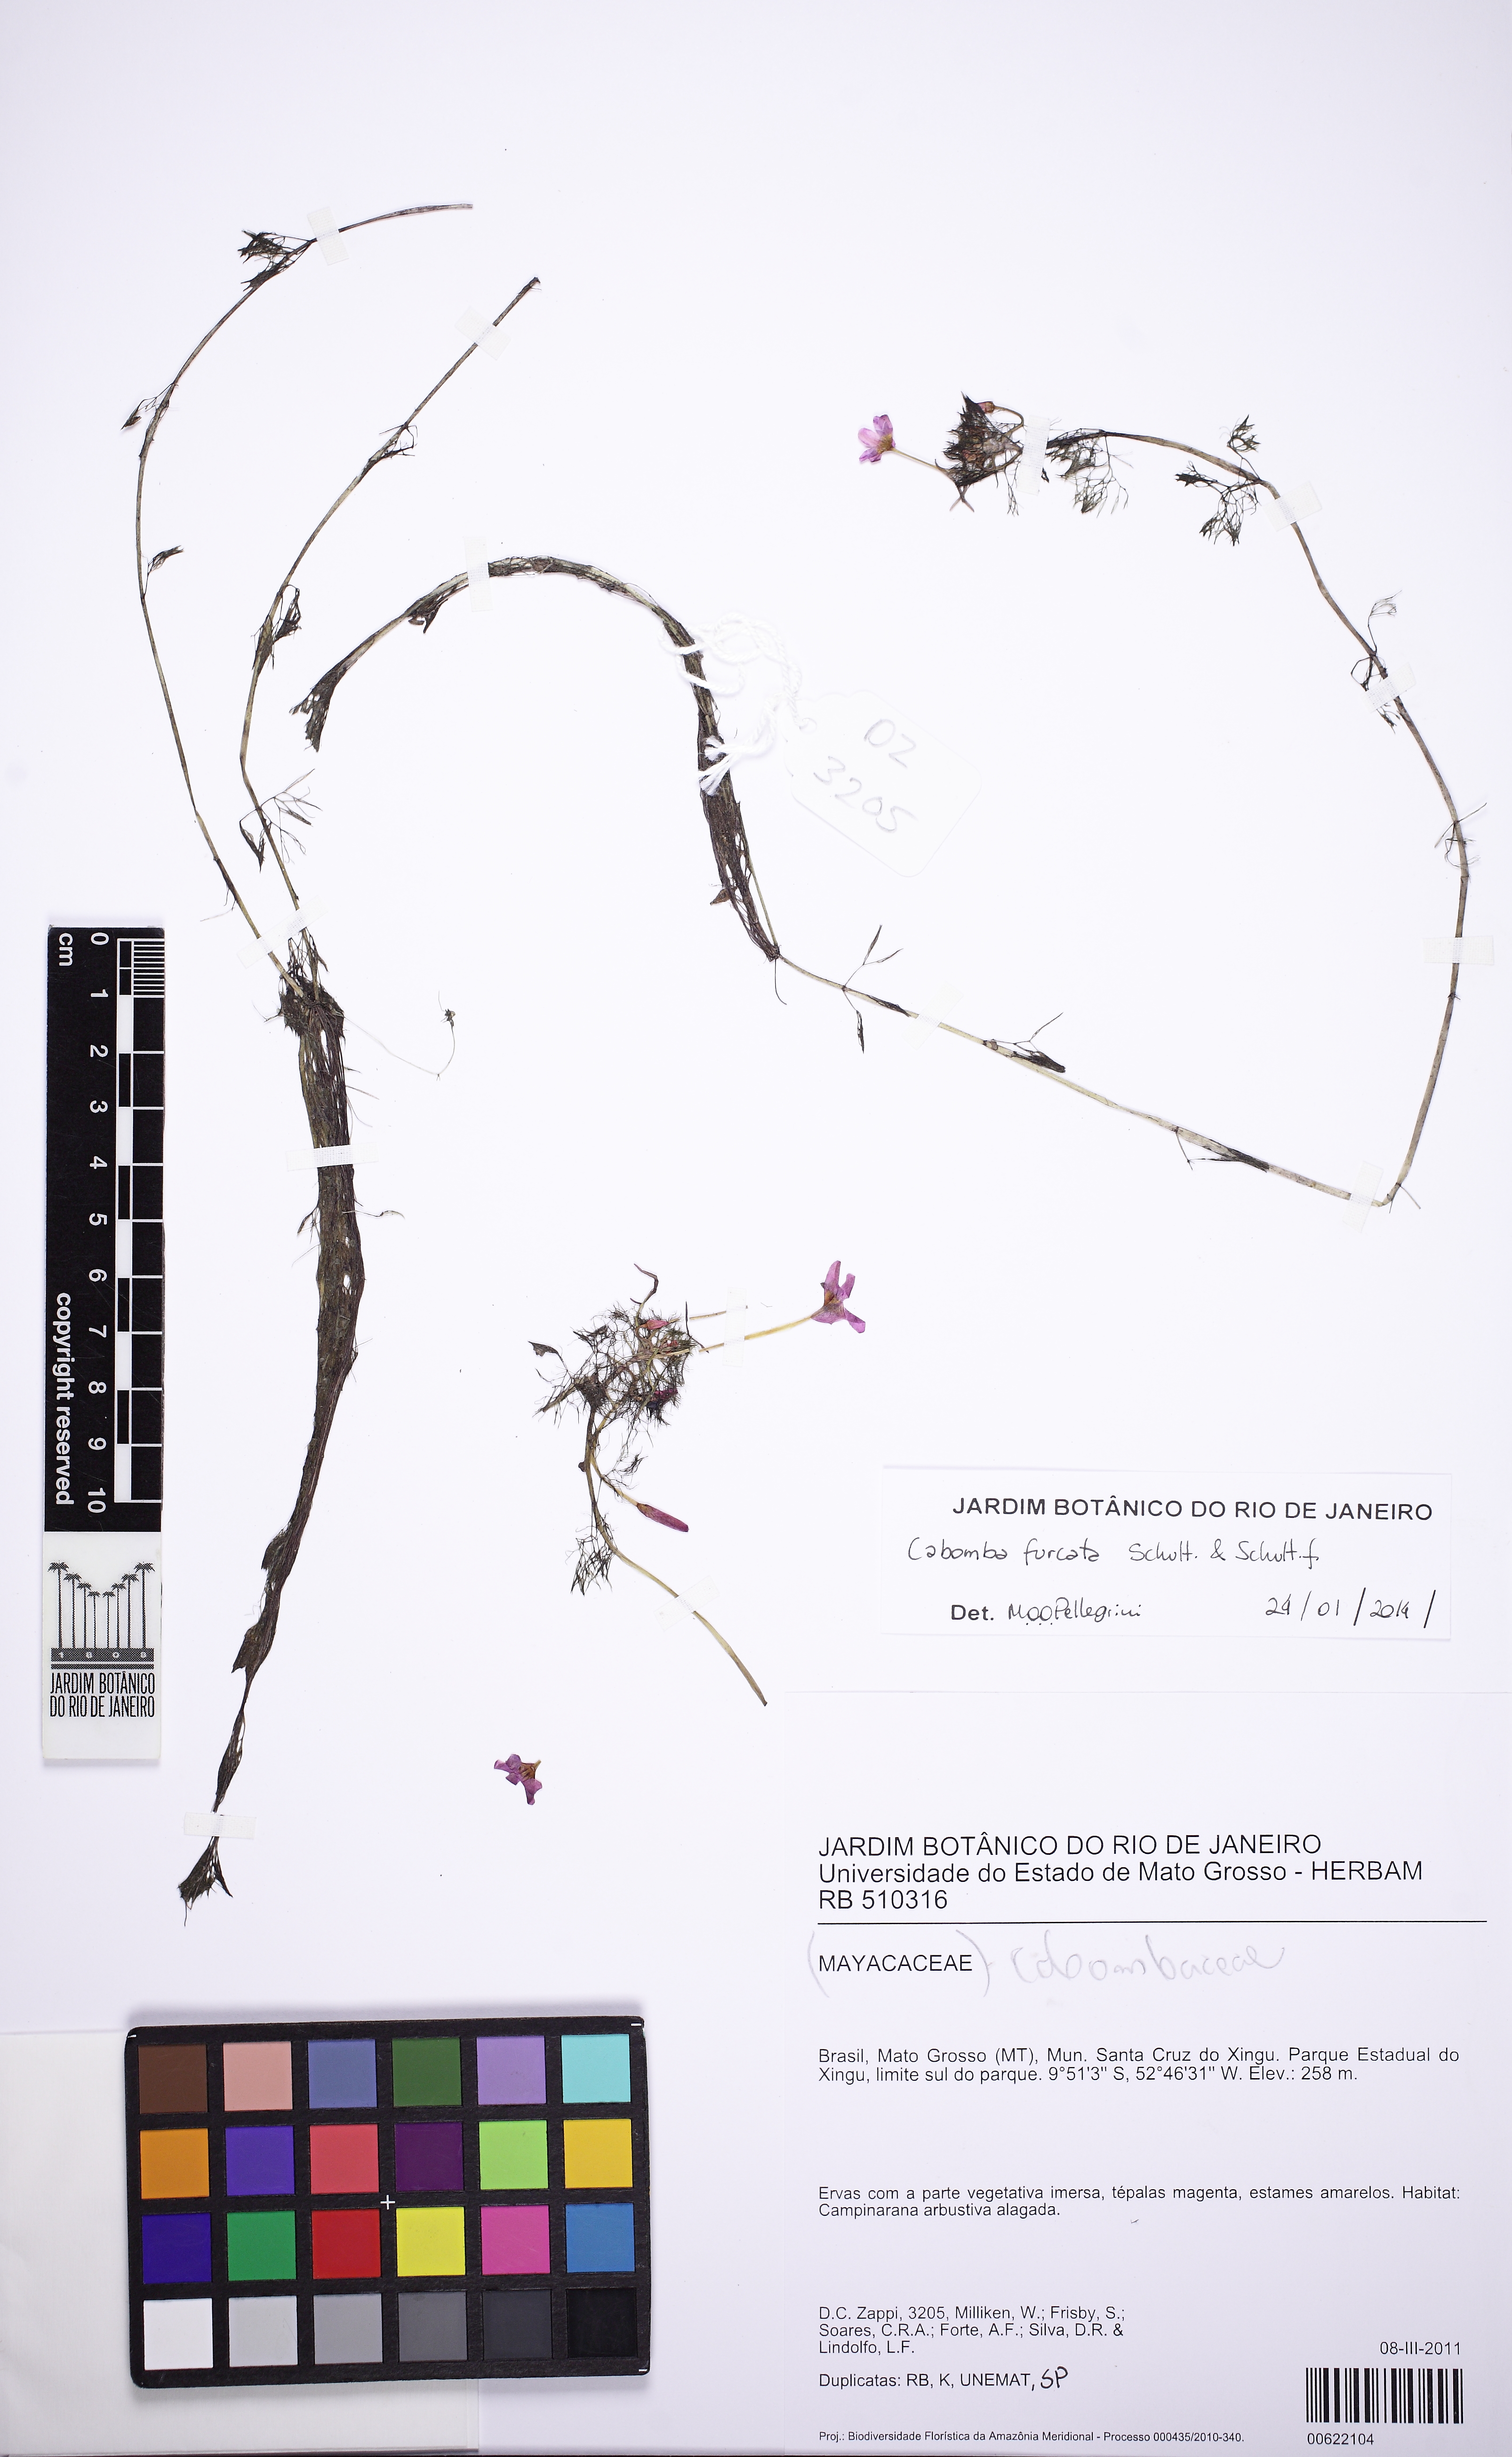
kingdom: Plantae
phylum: Tracheophyta
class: Magnoliopsida
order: Nymphaeales
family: Cabombaceae
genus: Cabomba
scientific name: Cabomba furcata
